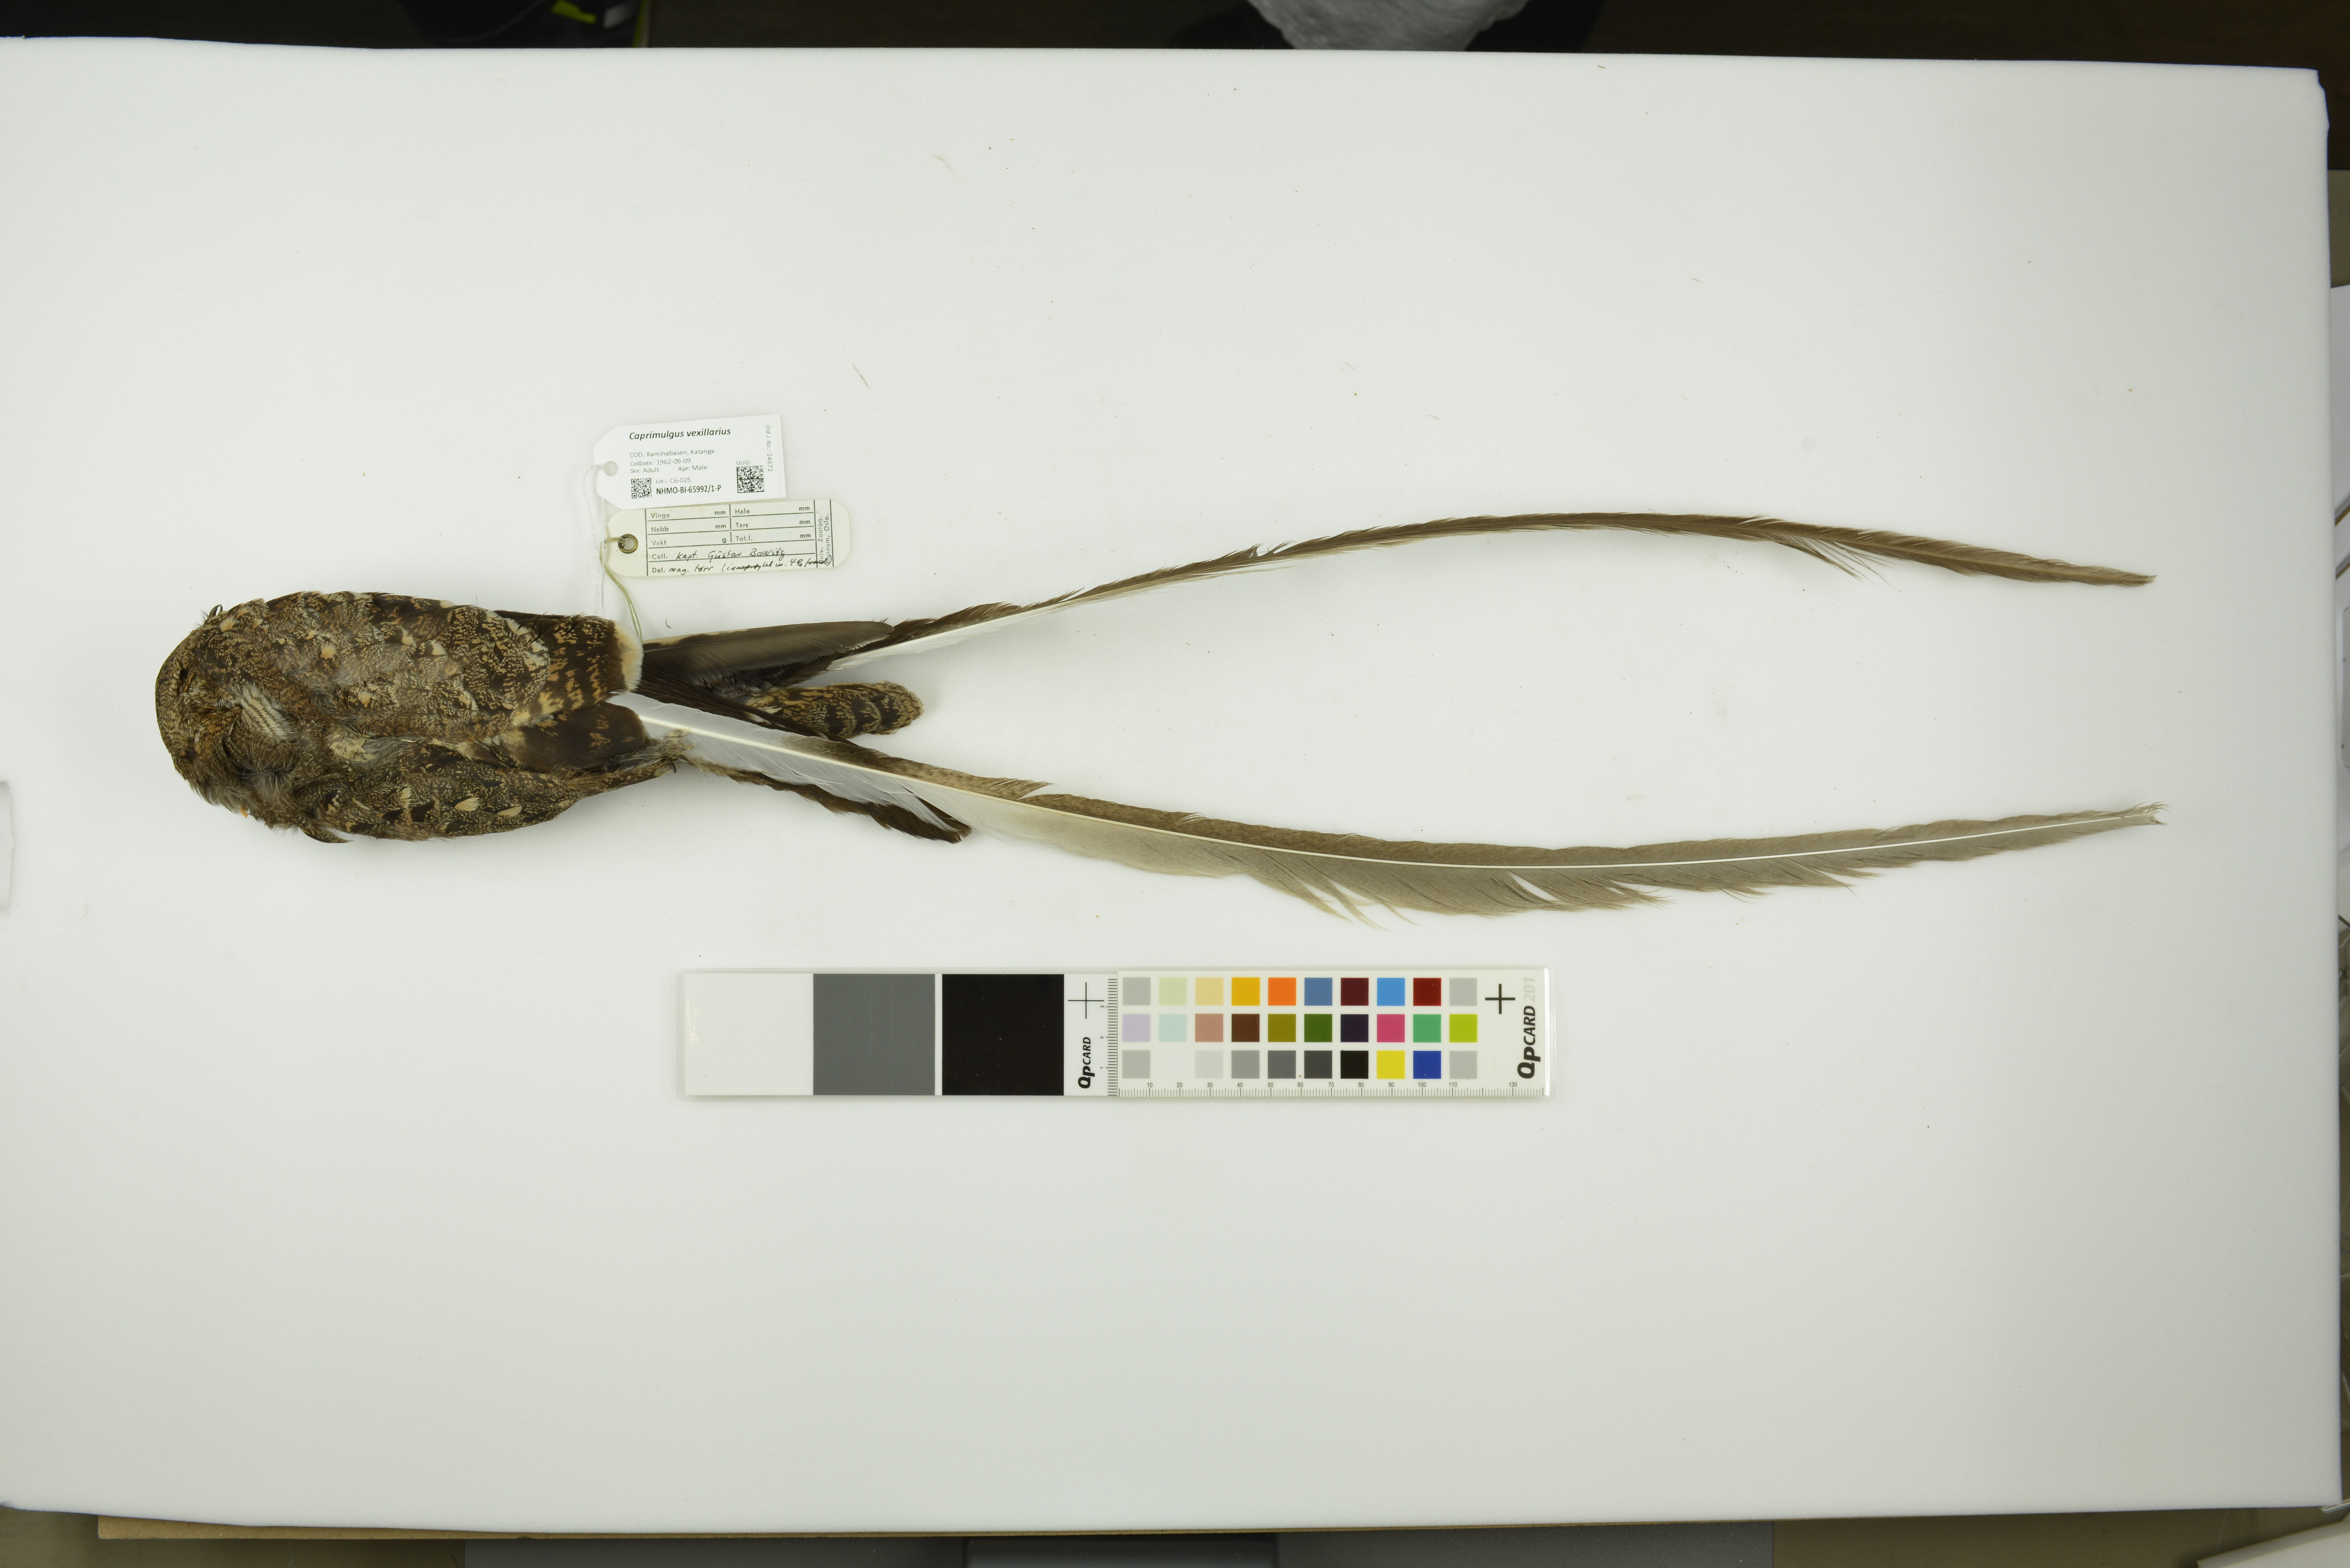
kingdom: Animalia
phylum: Chordata
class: Aves
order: Caprimulgiformes
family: Caprimulgidae
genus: Caprimulgus
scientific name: Caprimulgus vexillarius
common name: Pennant-winged nightjar
